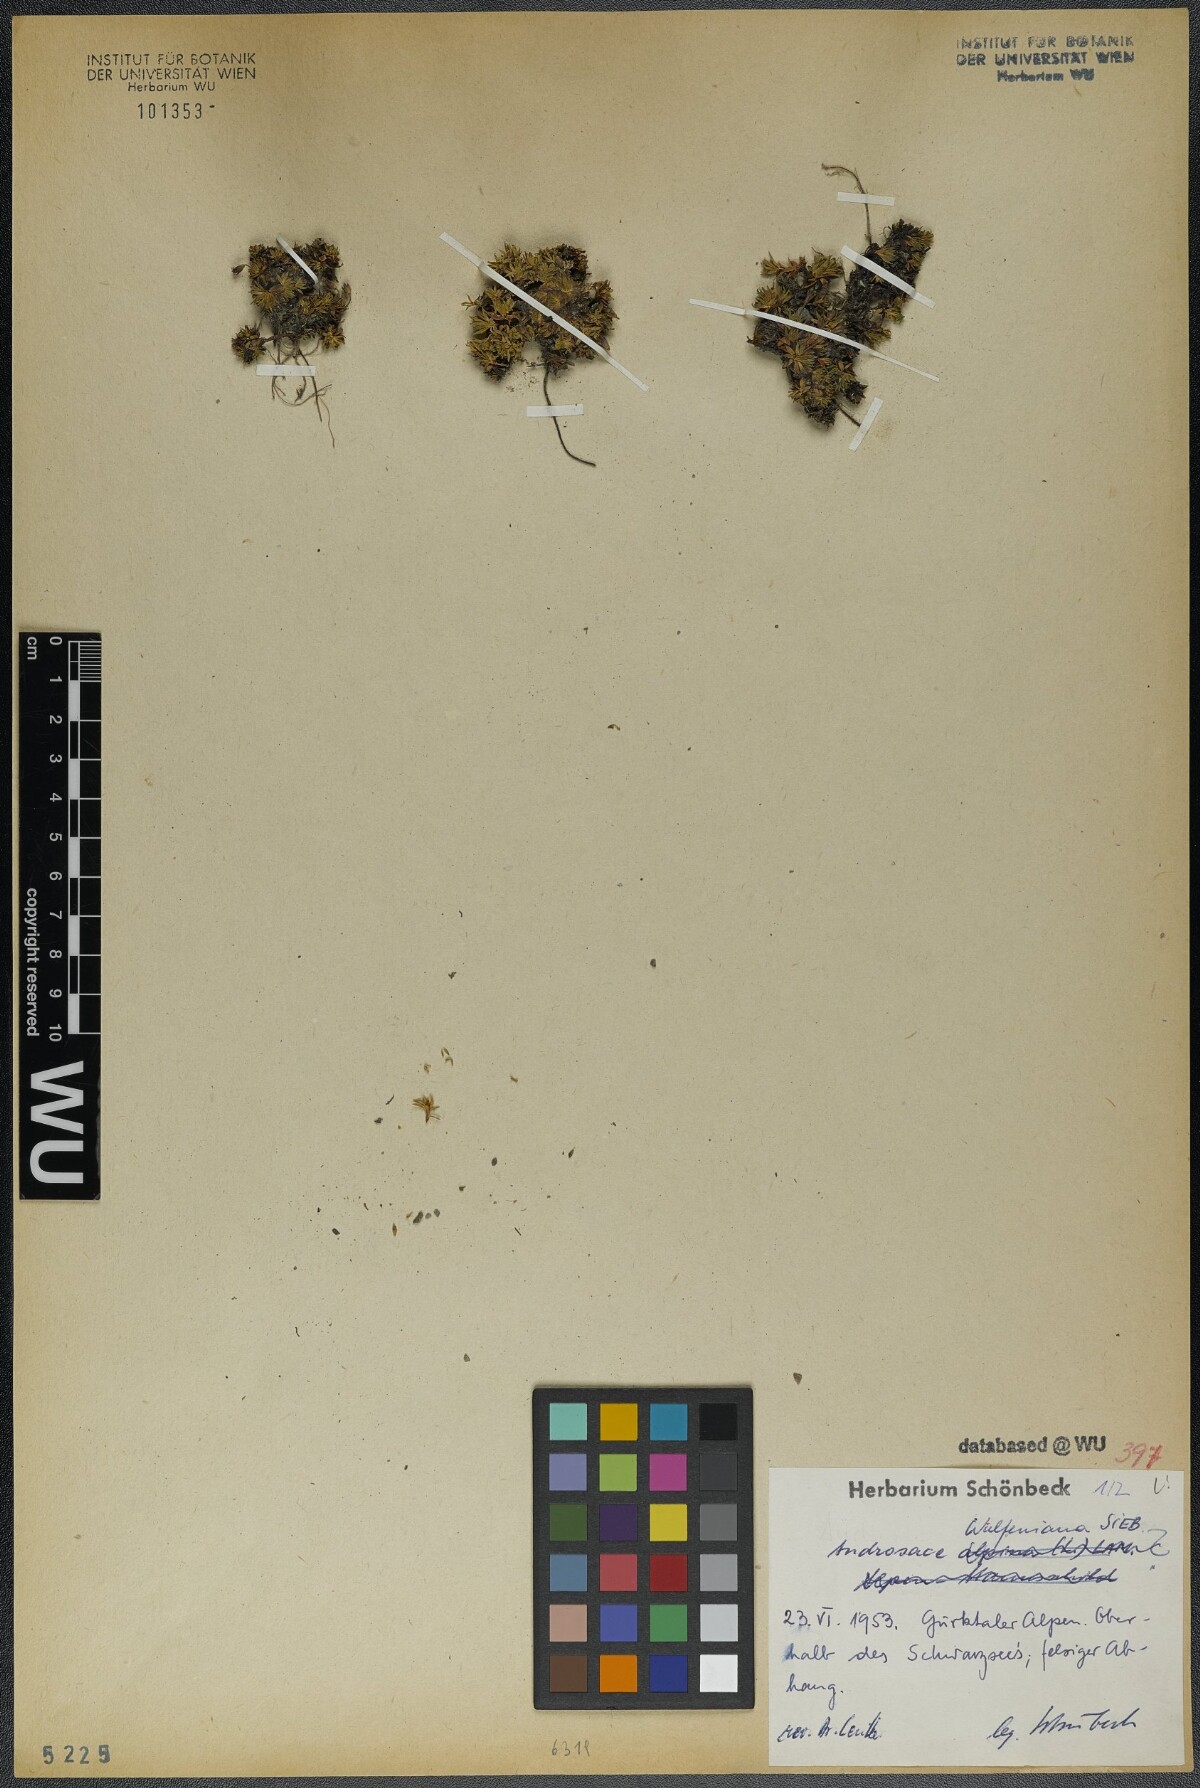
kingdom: Plantae
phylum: Tracheophyta
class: Magnoliopsida
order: Ericales
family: Primulaceae
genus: Androsace
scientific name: Androsace wulfeniana
